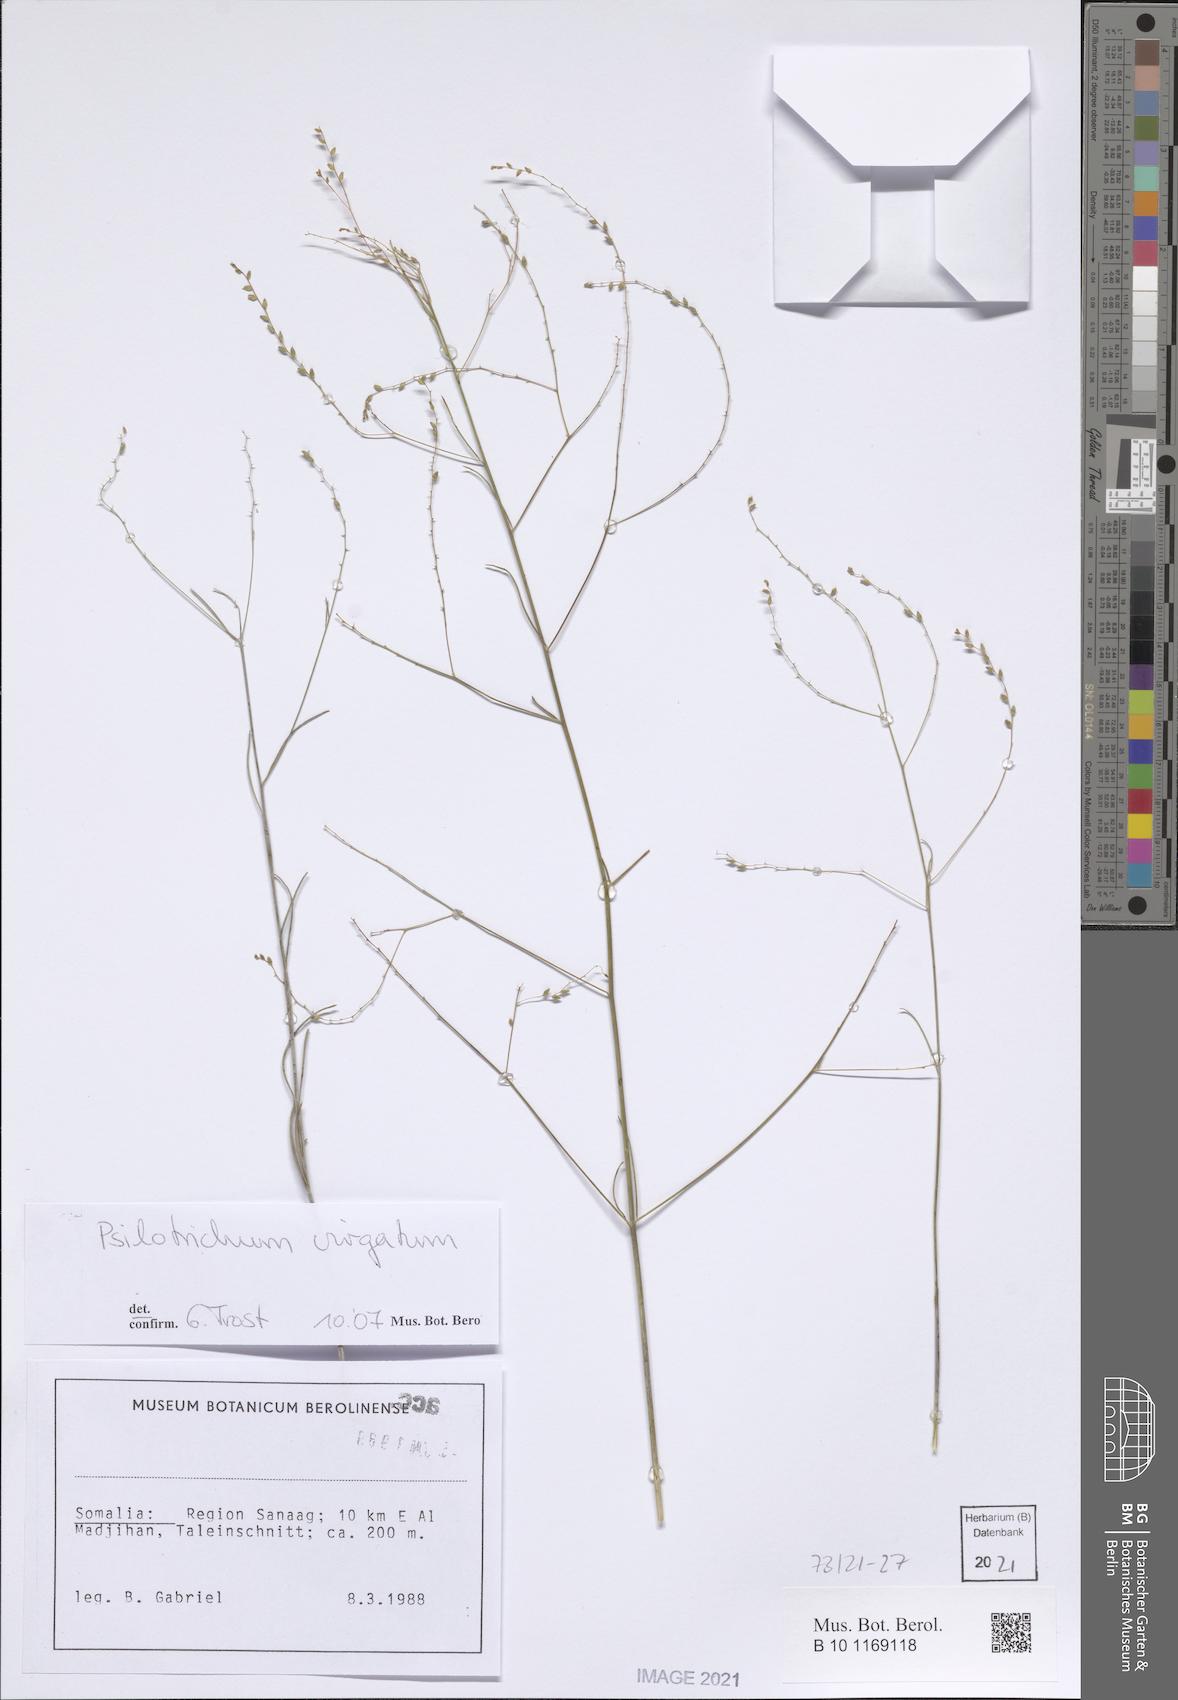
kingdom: Plantae
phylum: Tracheophyta
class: Magnoliopsida
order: Caryophyllales
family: Amaranthaceae
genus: Psilotrichum
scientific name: Psilotrichum virgatum
